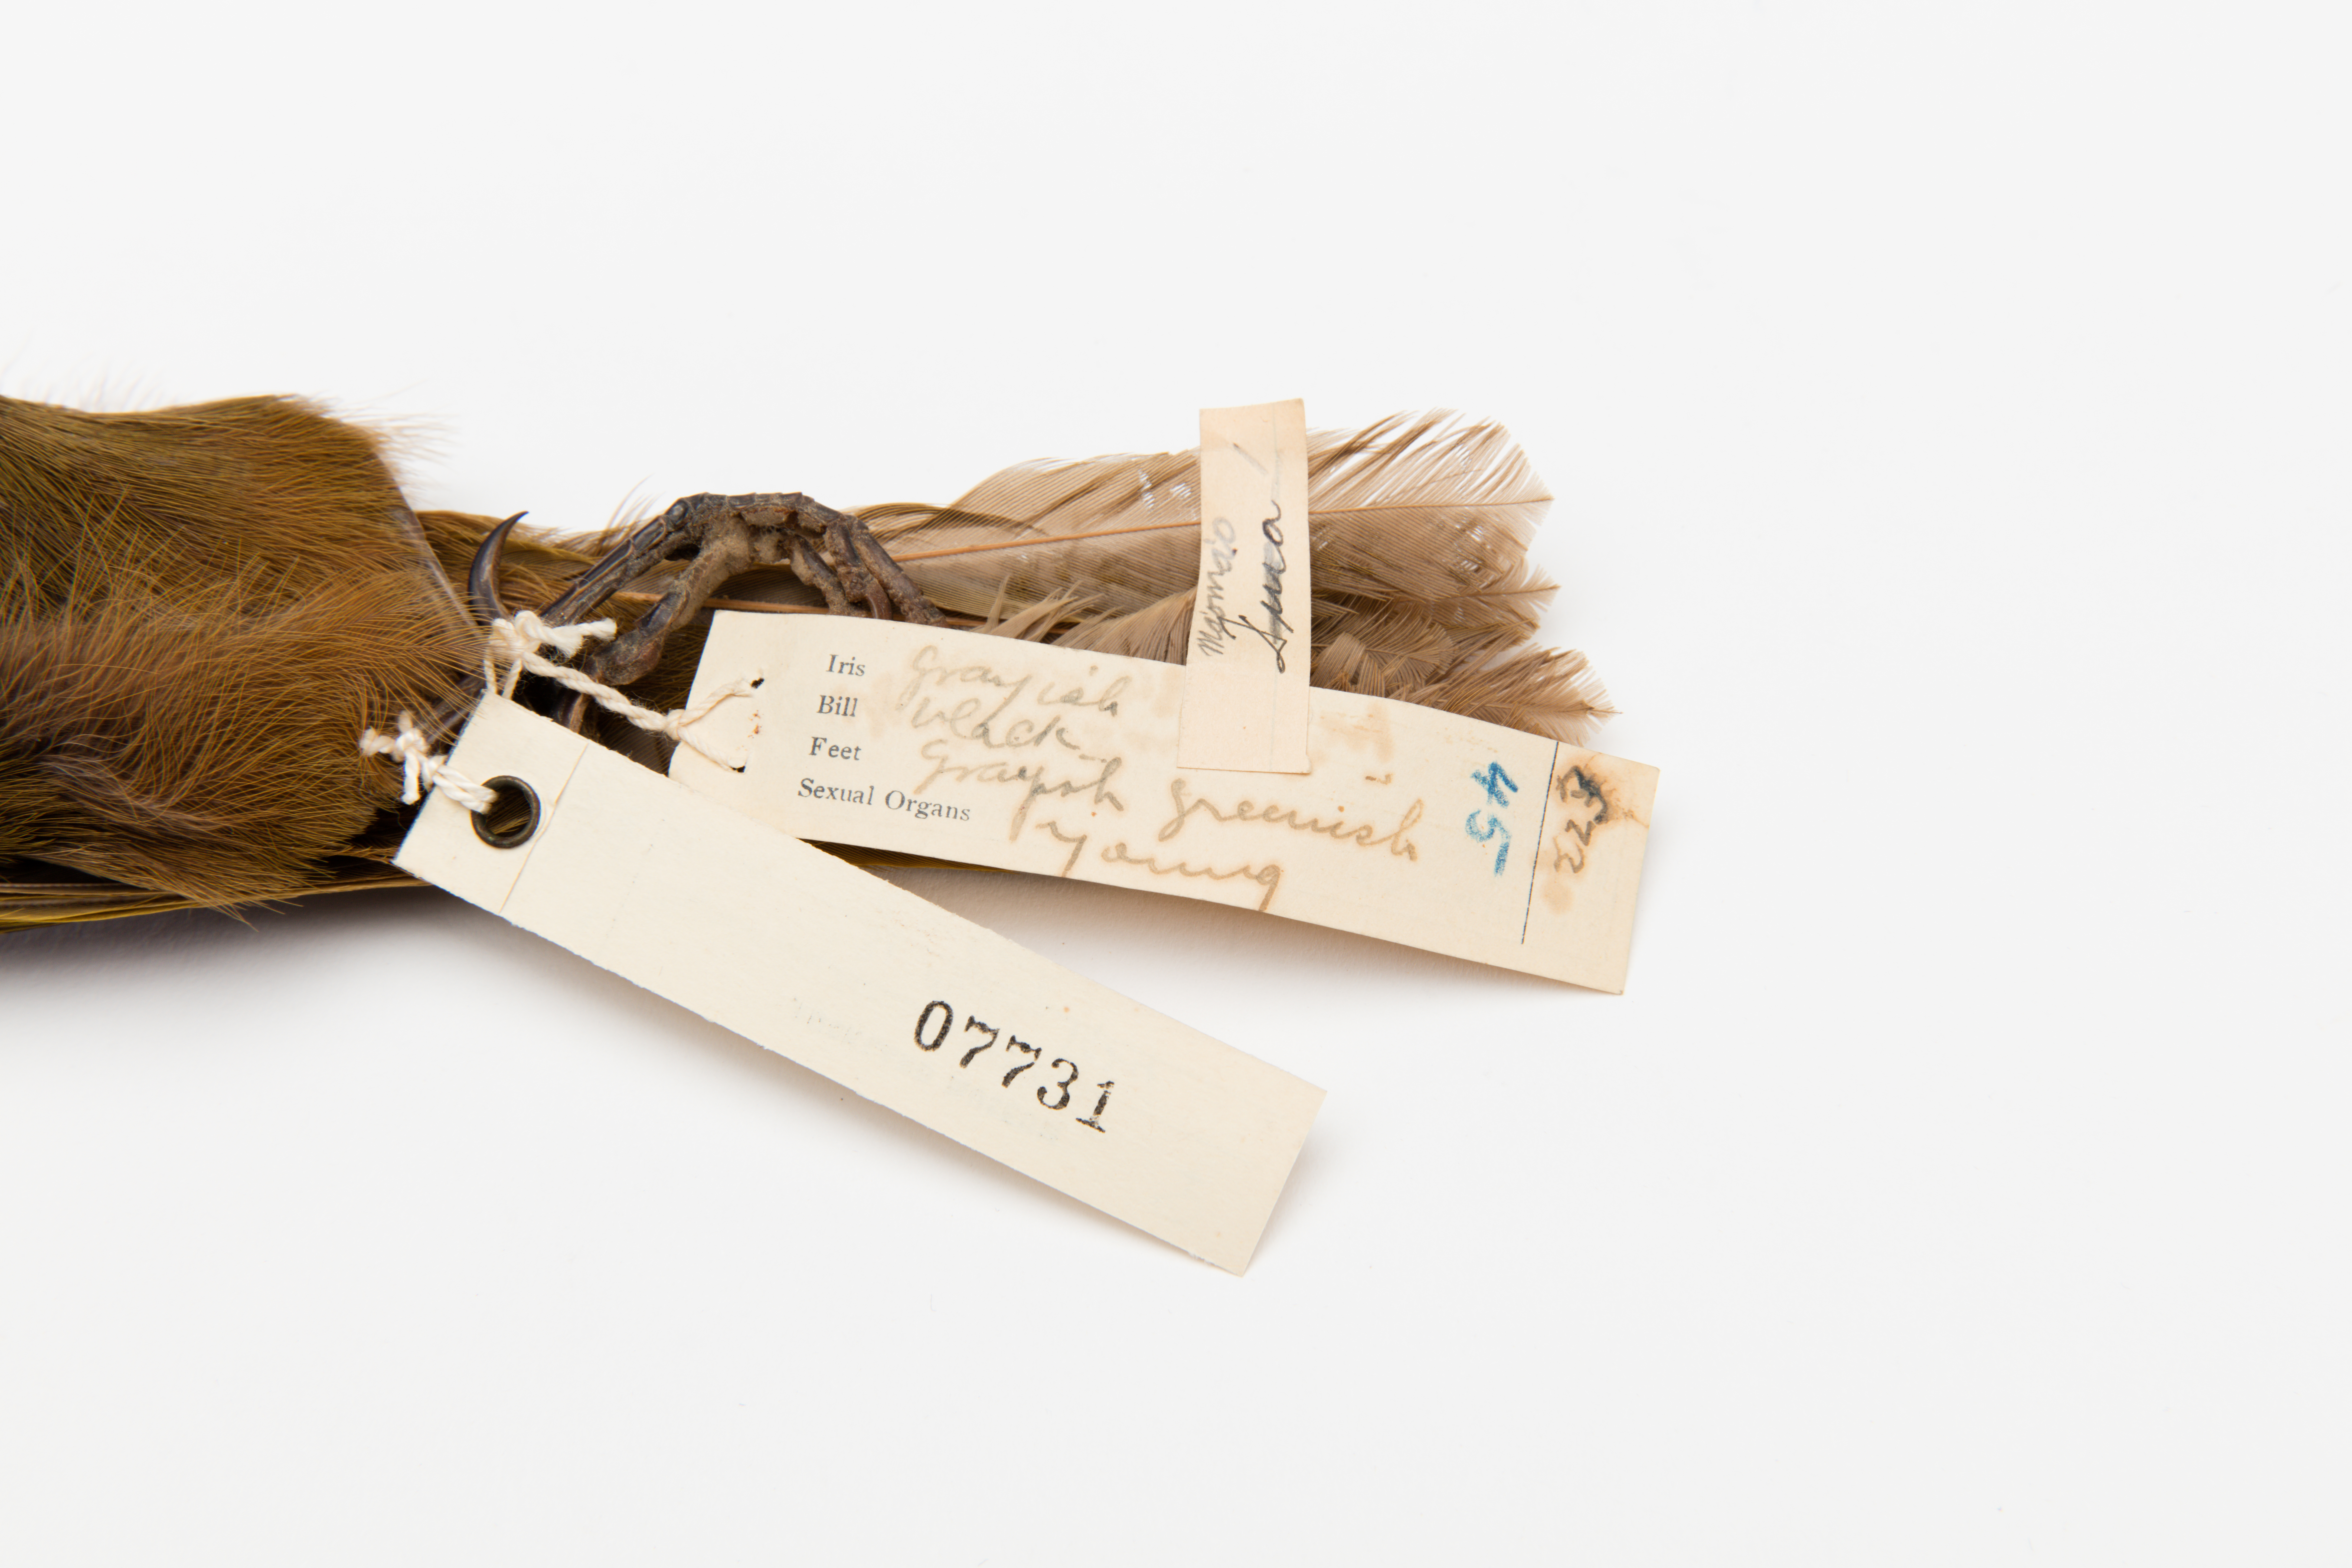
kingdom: Animalia
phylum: Chordata
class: Aves
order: Passeriformes
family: Meliphagidae
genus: Gymnomyza
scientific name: Gymnomyza samoensis
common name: Mao
